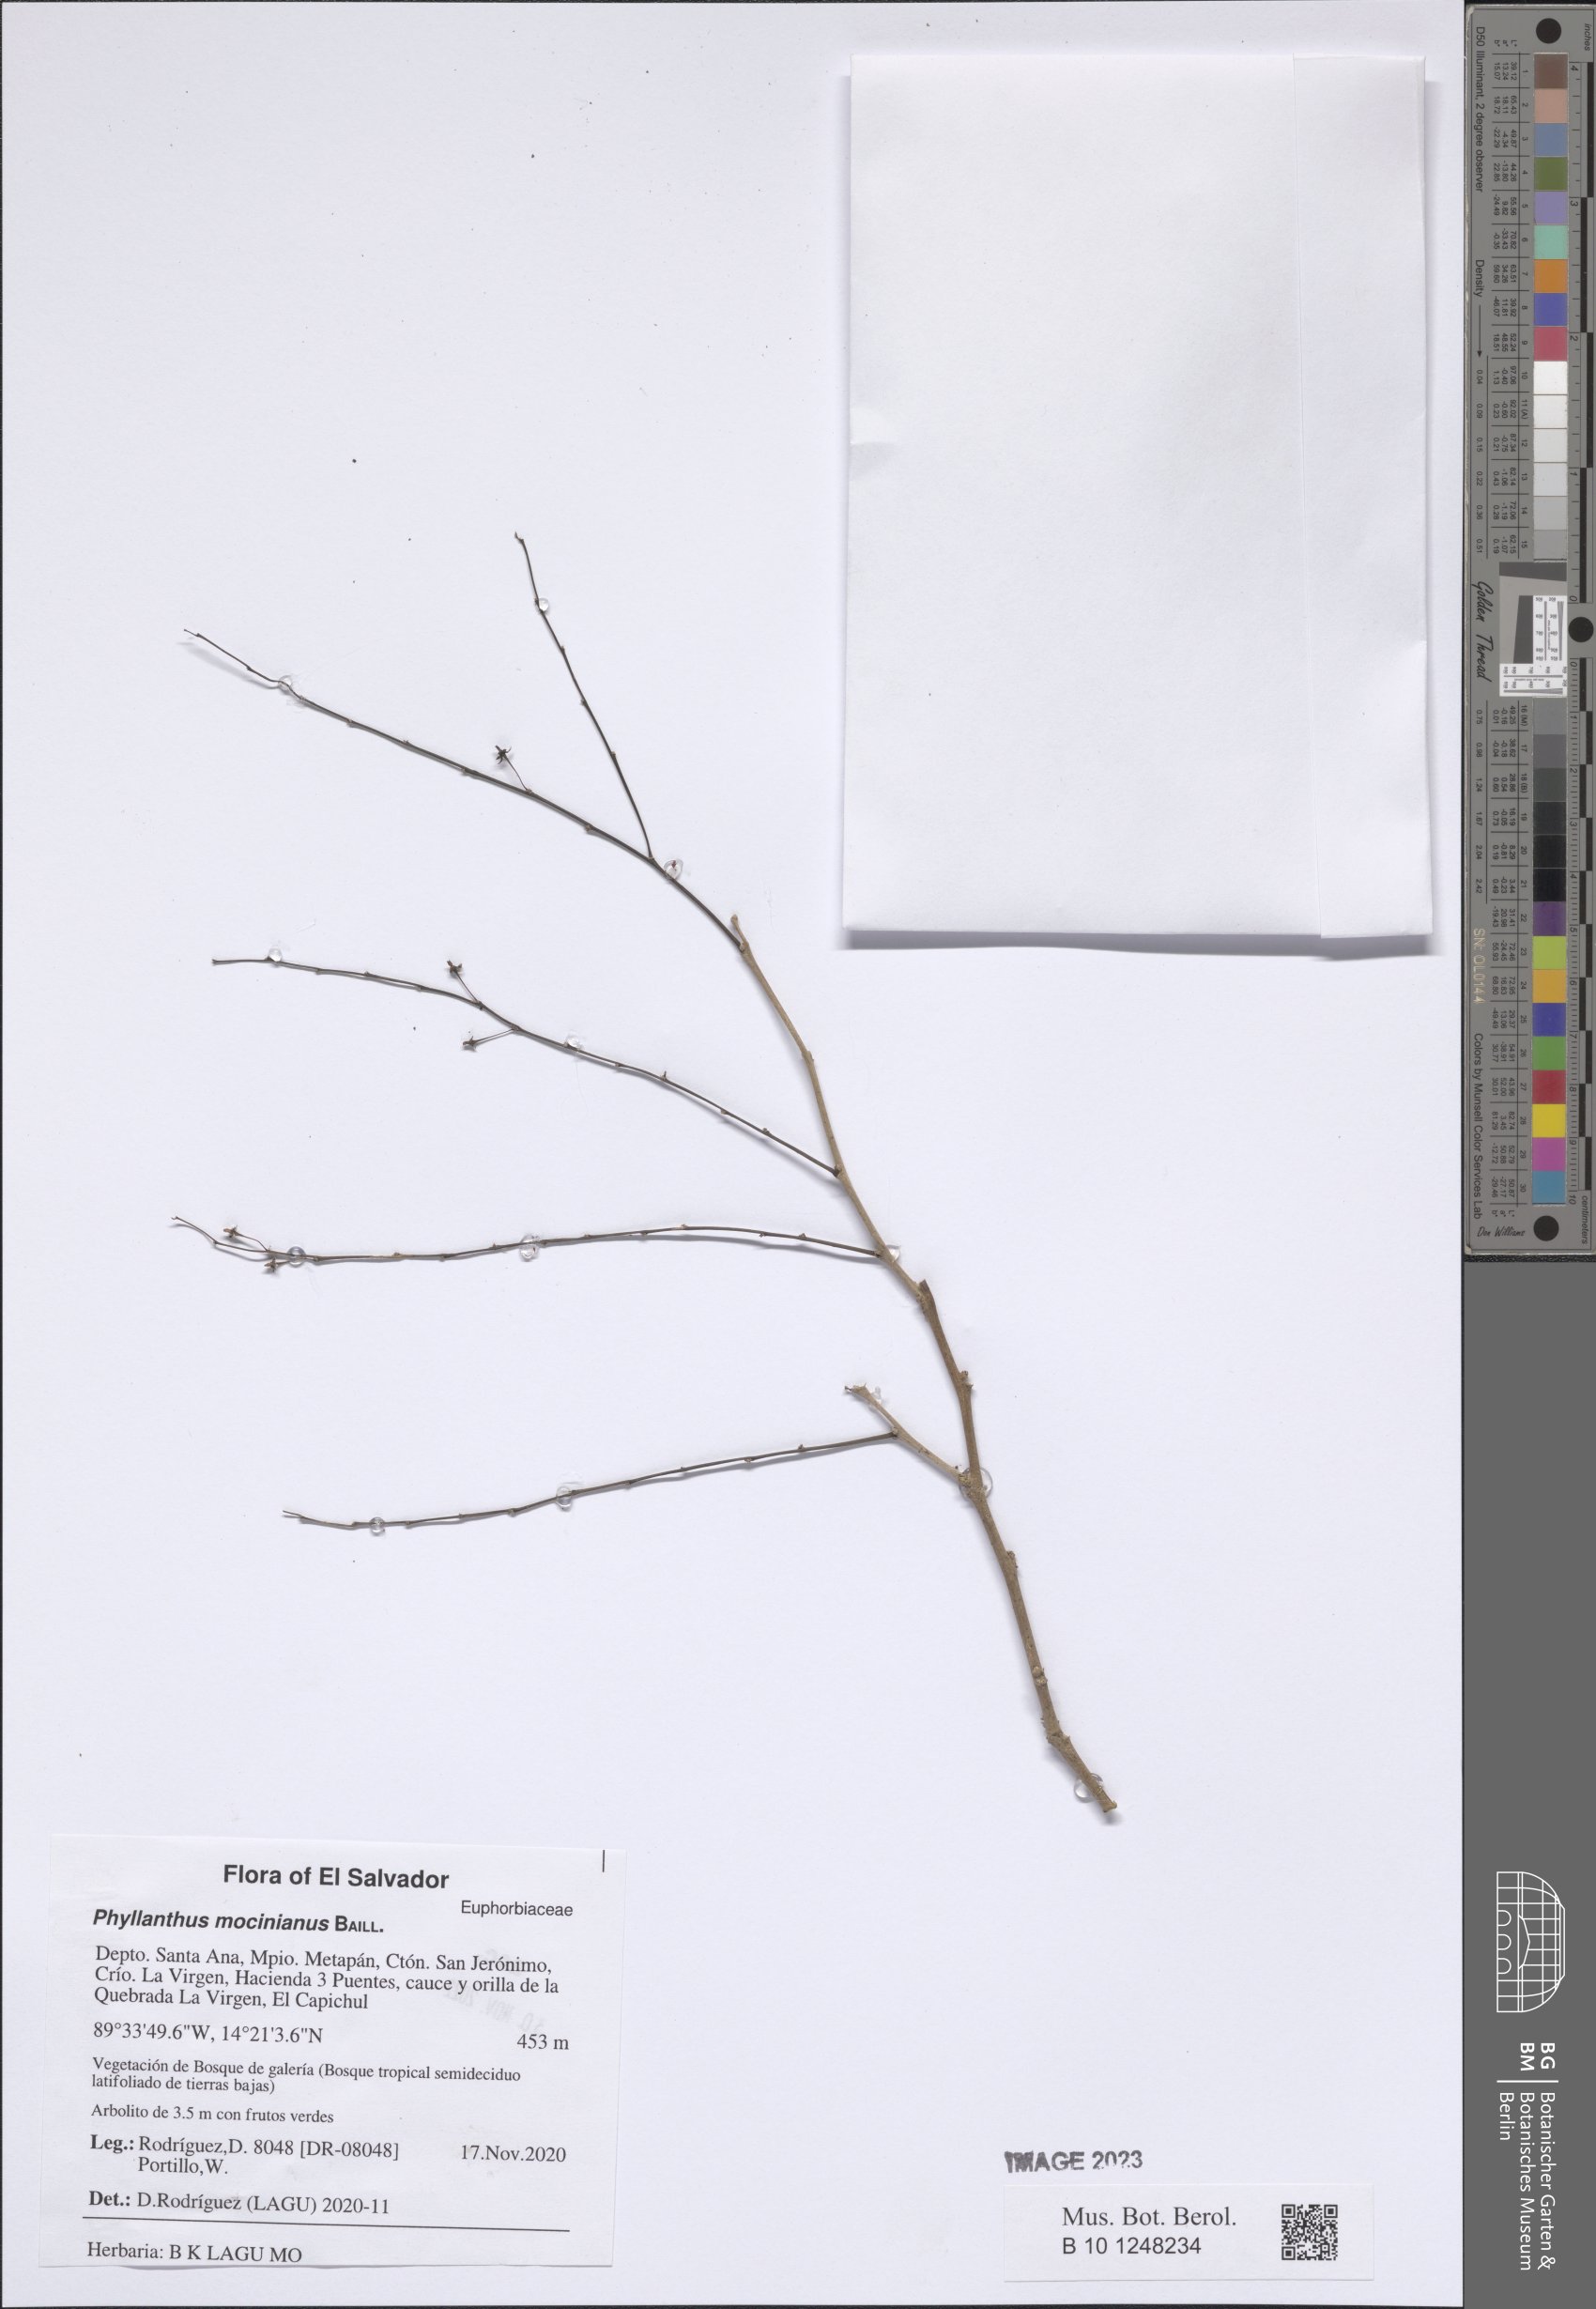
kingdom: Plantae
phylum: Tracheophyta
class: Magnoliopsida
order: Malpighiales
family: Phyllanthaceae
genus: Phyllanthus
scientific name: Phyllanthus mocinianus
